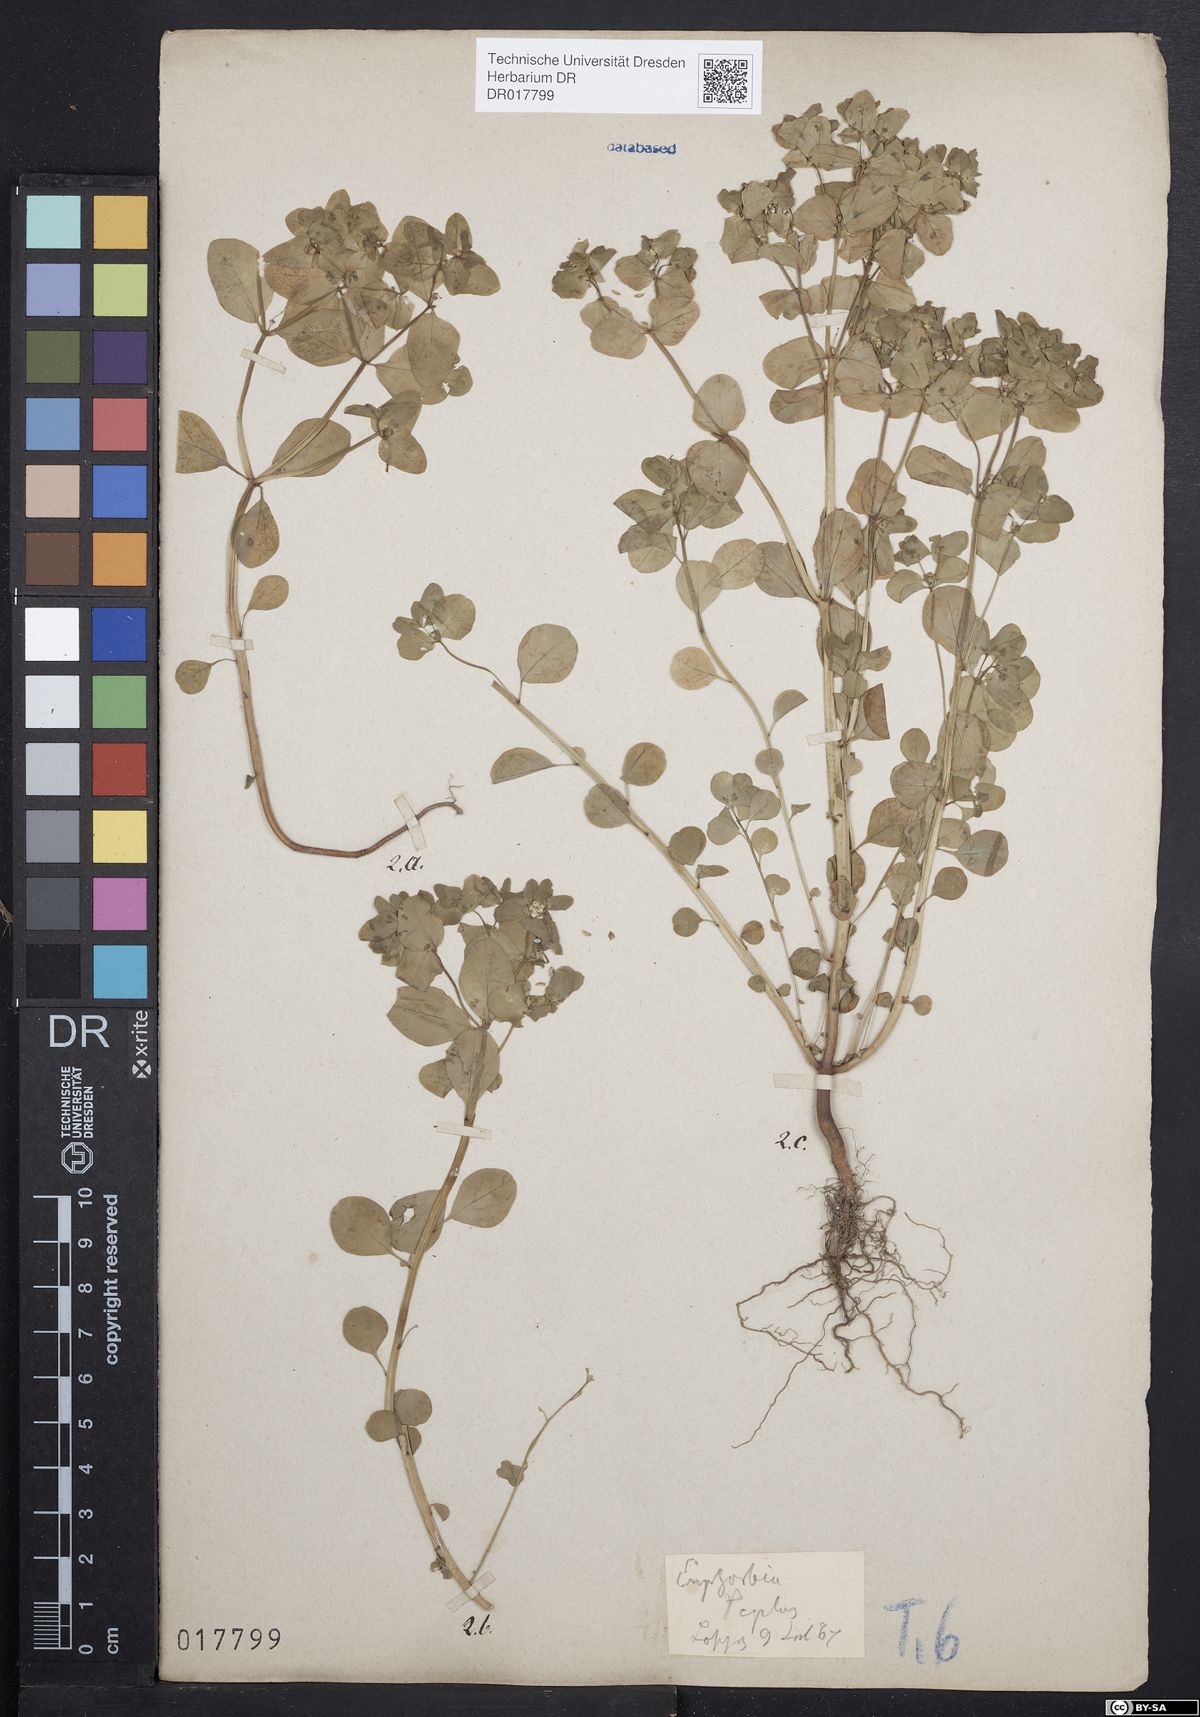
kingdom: Plantae
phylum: Tracheophyta
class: Magnoliopsida
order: Malpighiales
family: Euphorbiaceae
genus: Euphorbia
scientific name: Euphorbia peplus
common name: Petty spurge
